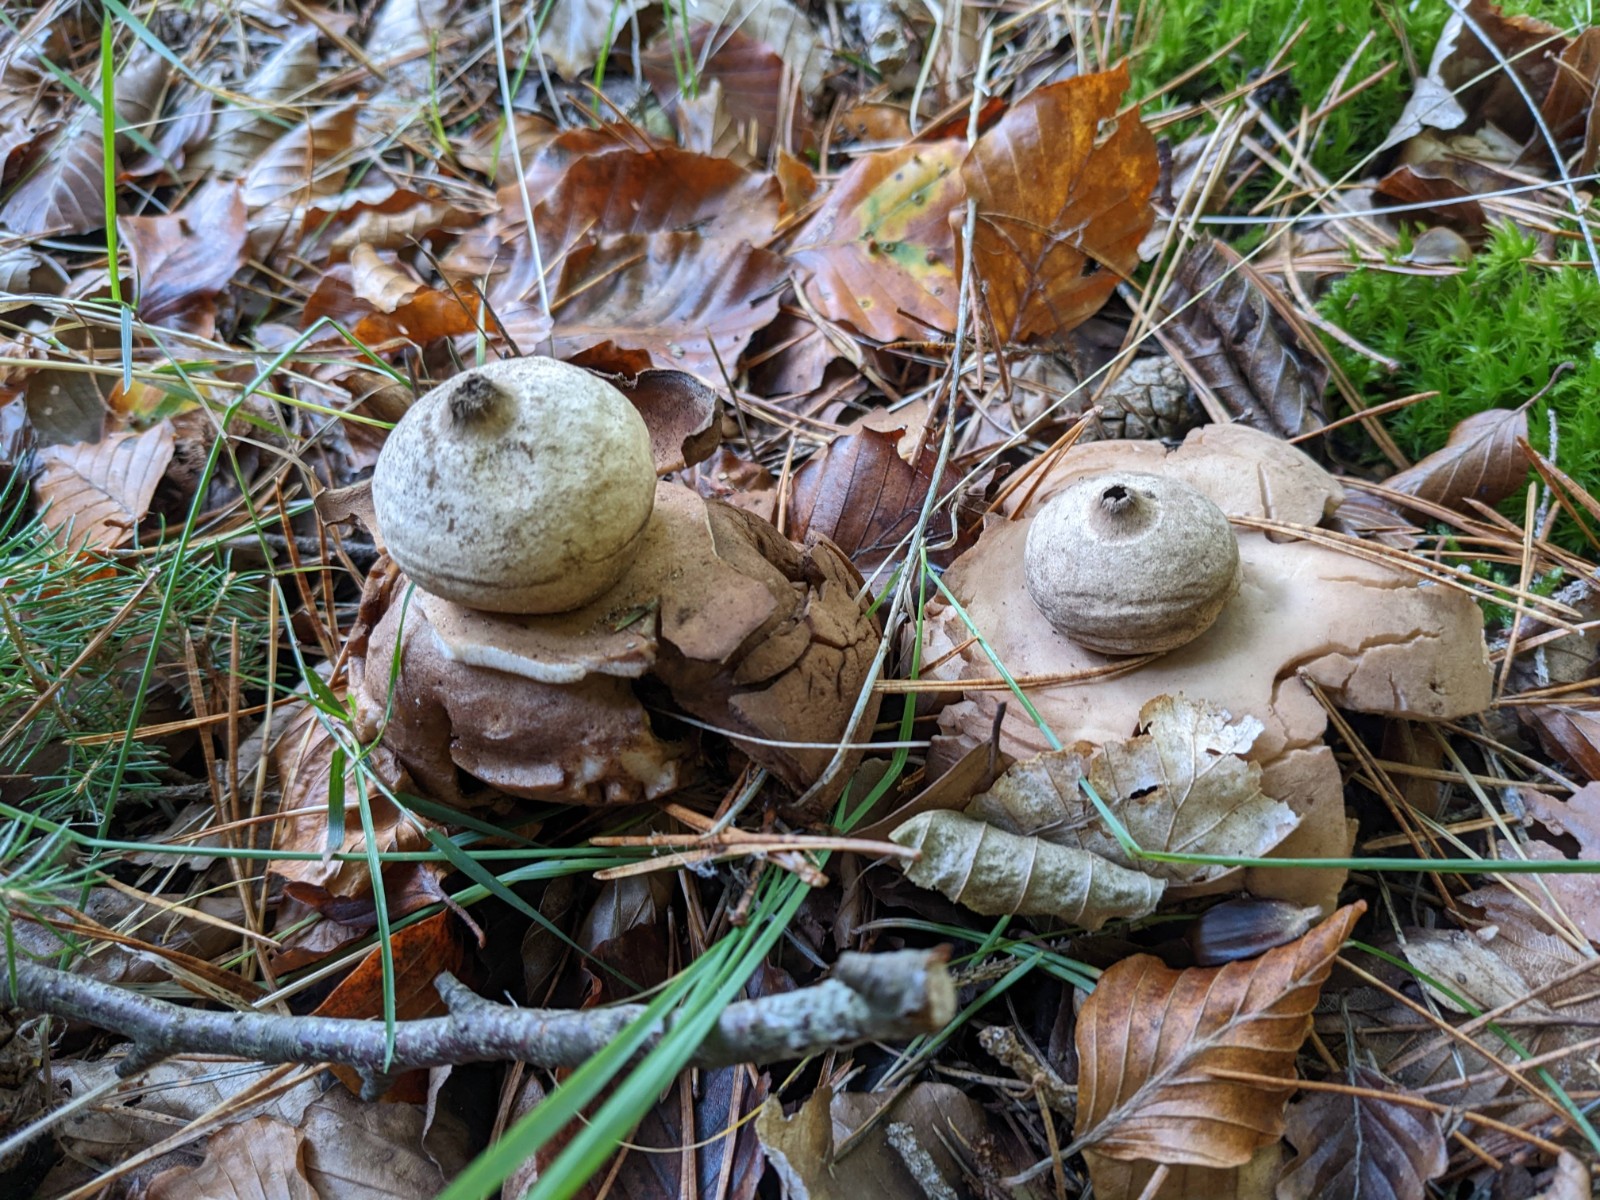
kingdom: Fungi
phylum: Basidiomycota
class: Agaricomycetes
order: Geastrales
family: Geastraceae
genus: Geastrum
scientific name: Geastrum michelianum
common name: kødet stjernebold
